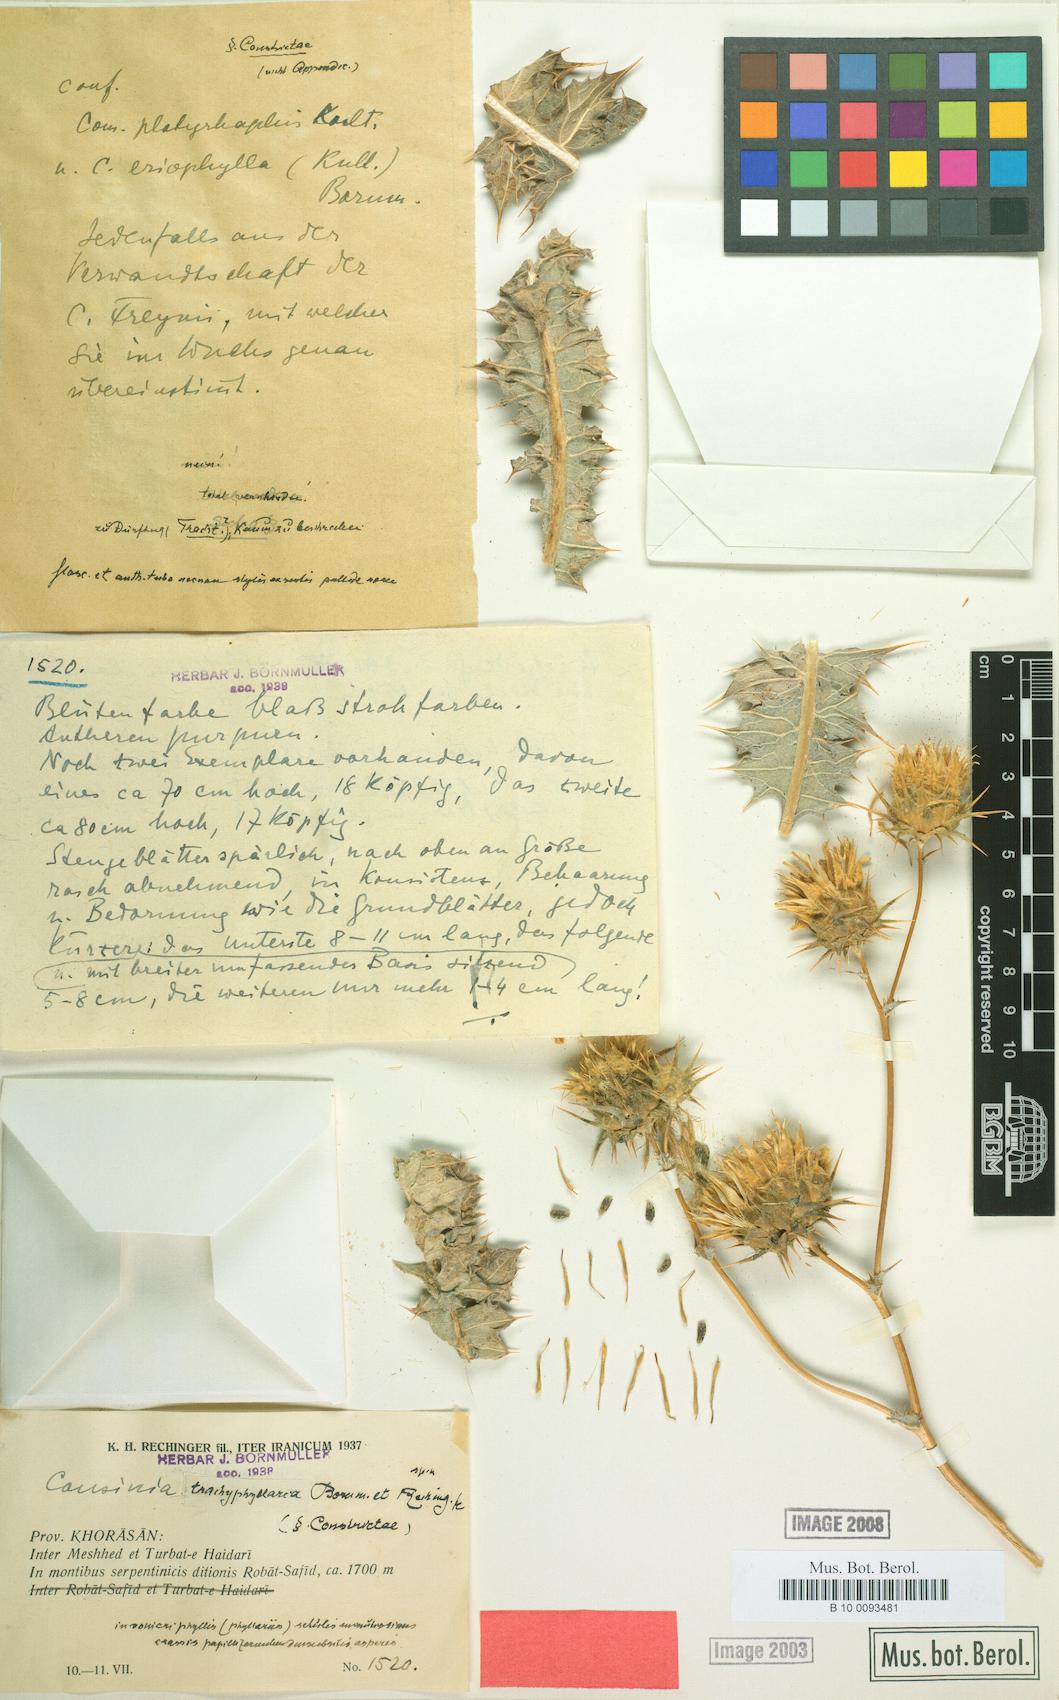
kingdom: Plantae
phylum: Tracheophyta
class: Magnoliopsida
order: Asterales
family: Asteraceae
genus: Cousinia
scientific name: Cousinia trachyphyllaria
